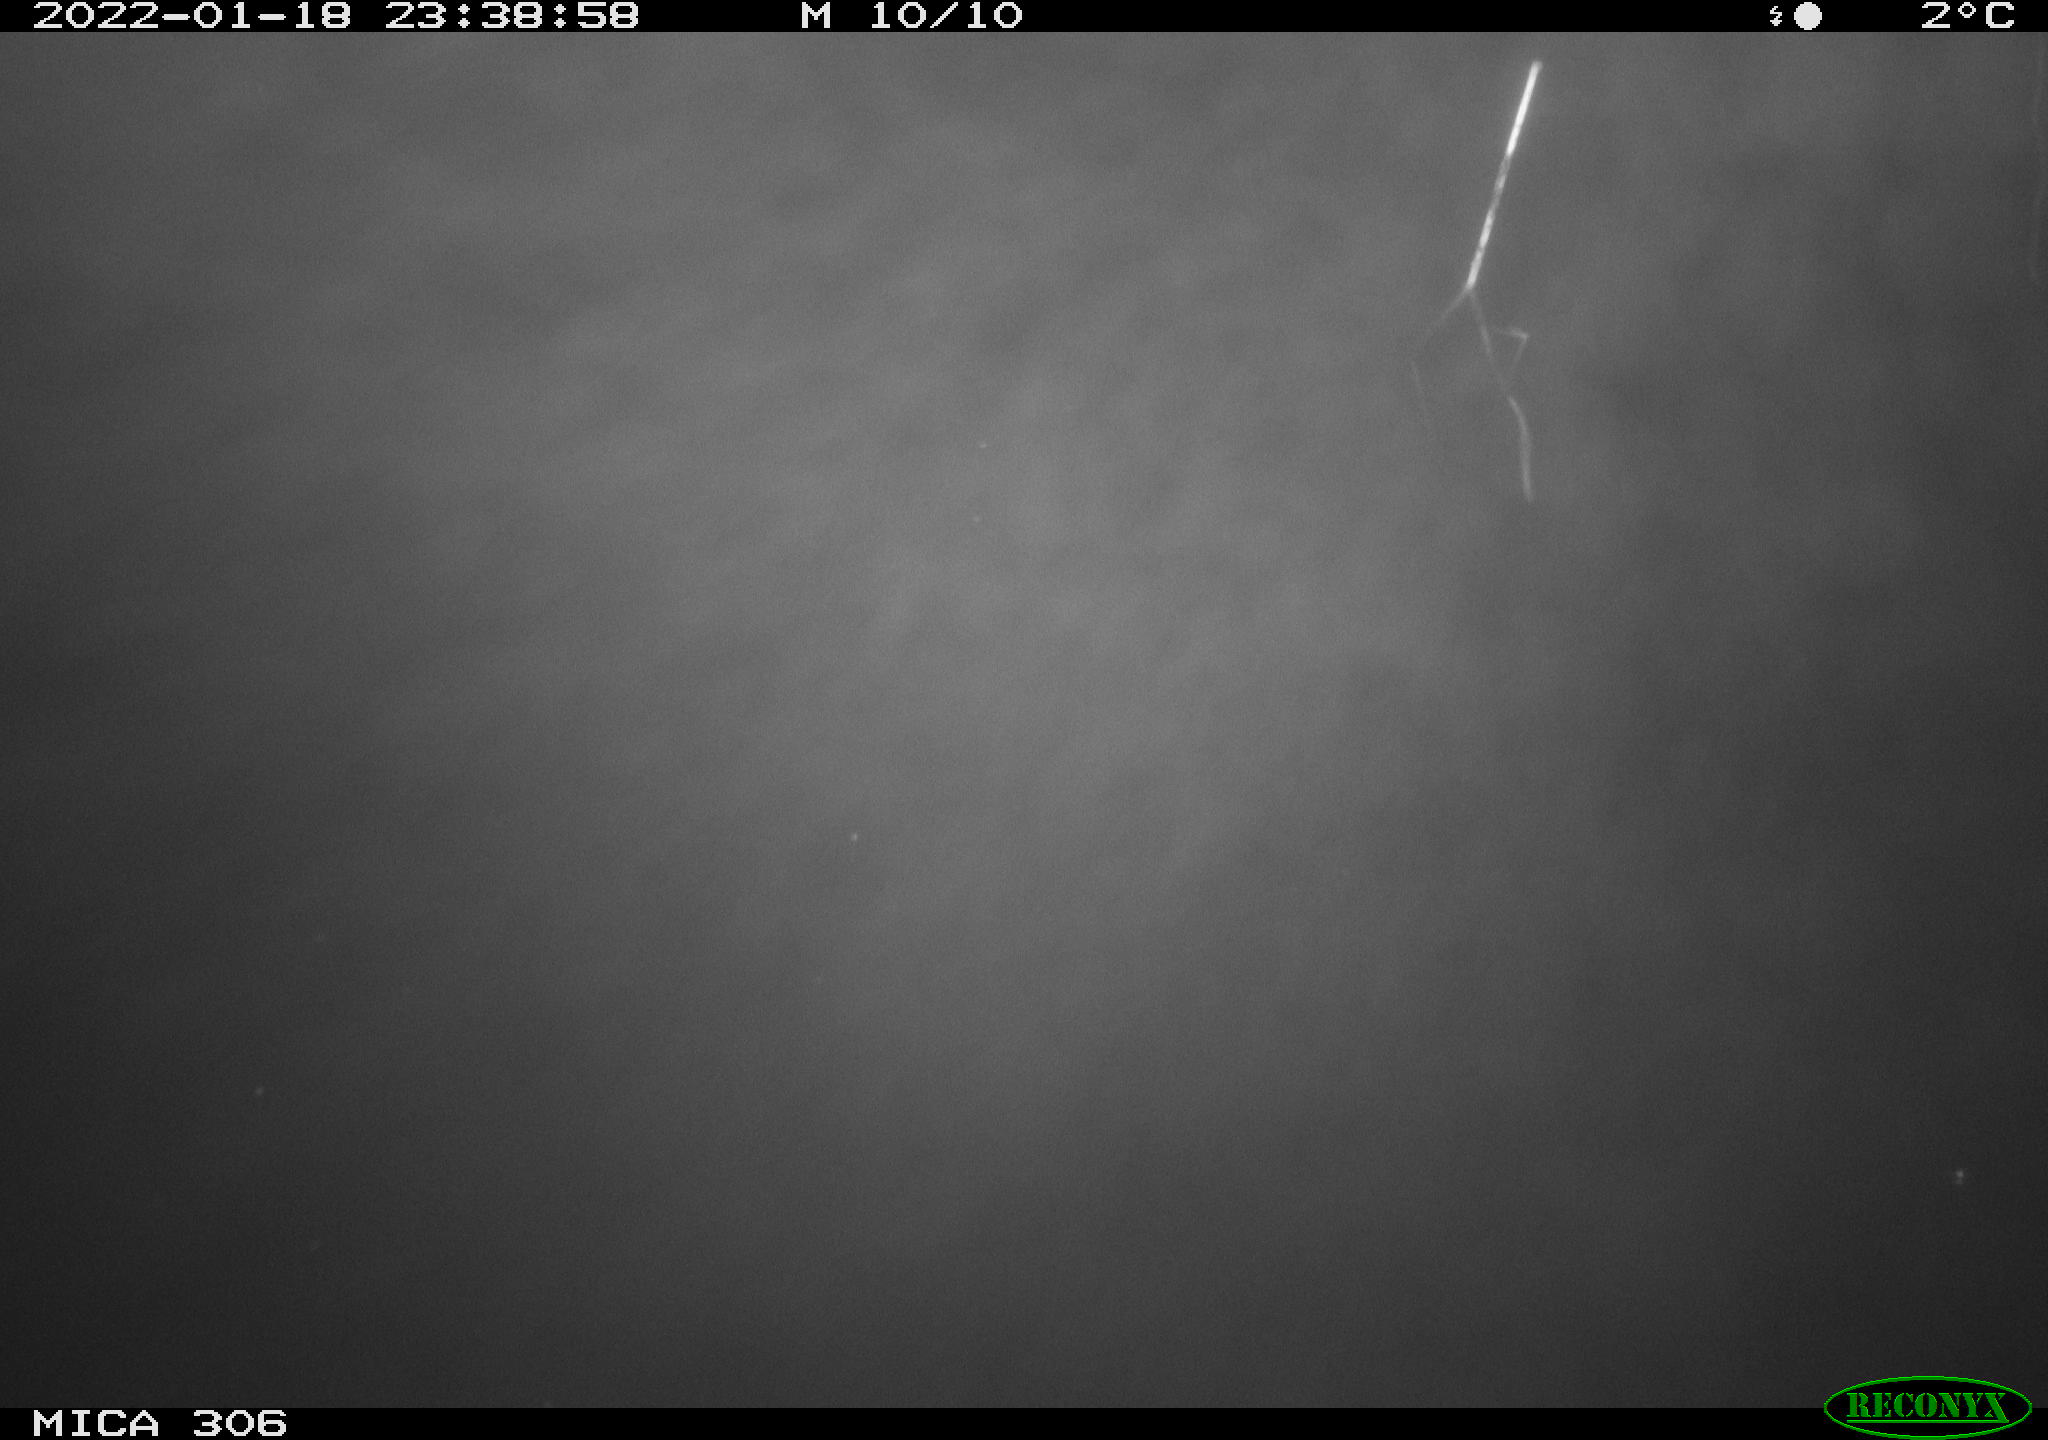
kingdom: Animalia
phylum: Chordata
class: Mammalia
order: Rodentia
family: Cricetidae
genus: Ondatra
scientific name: Ondatra zibethicus
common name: Muskrat
